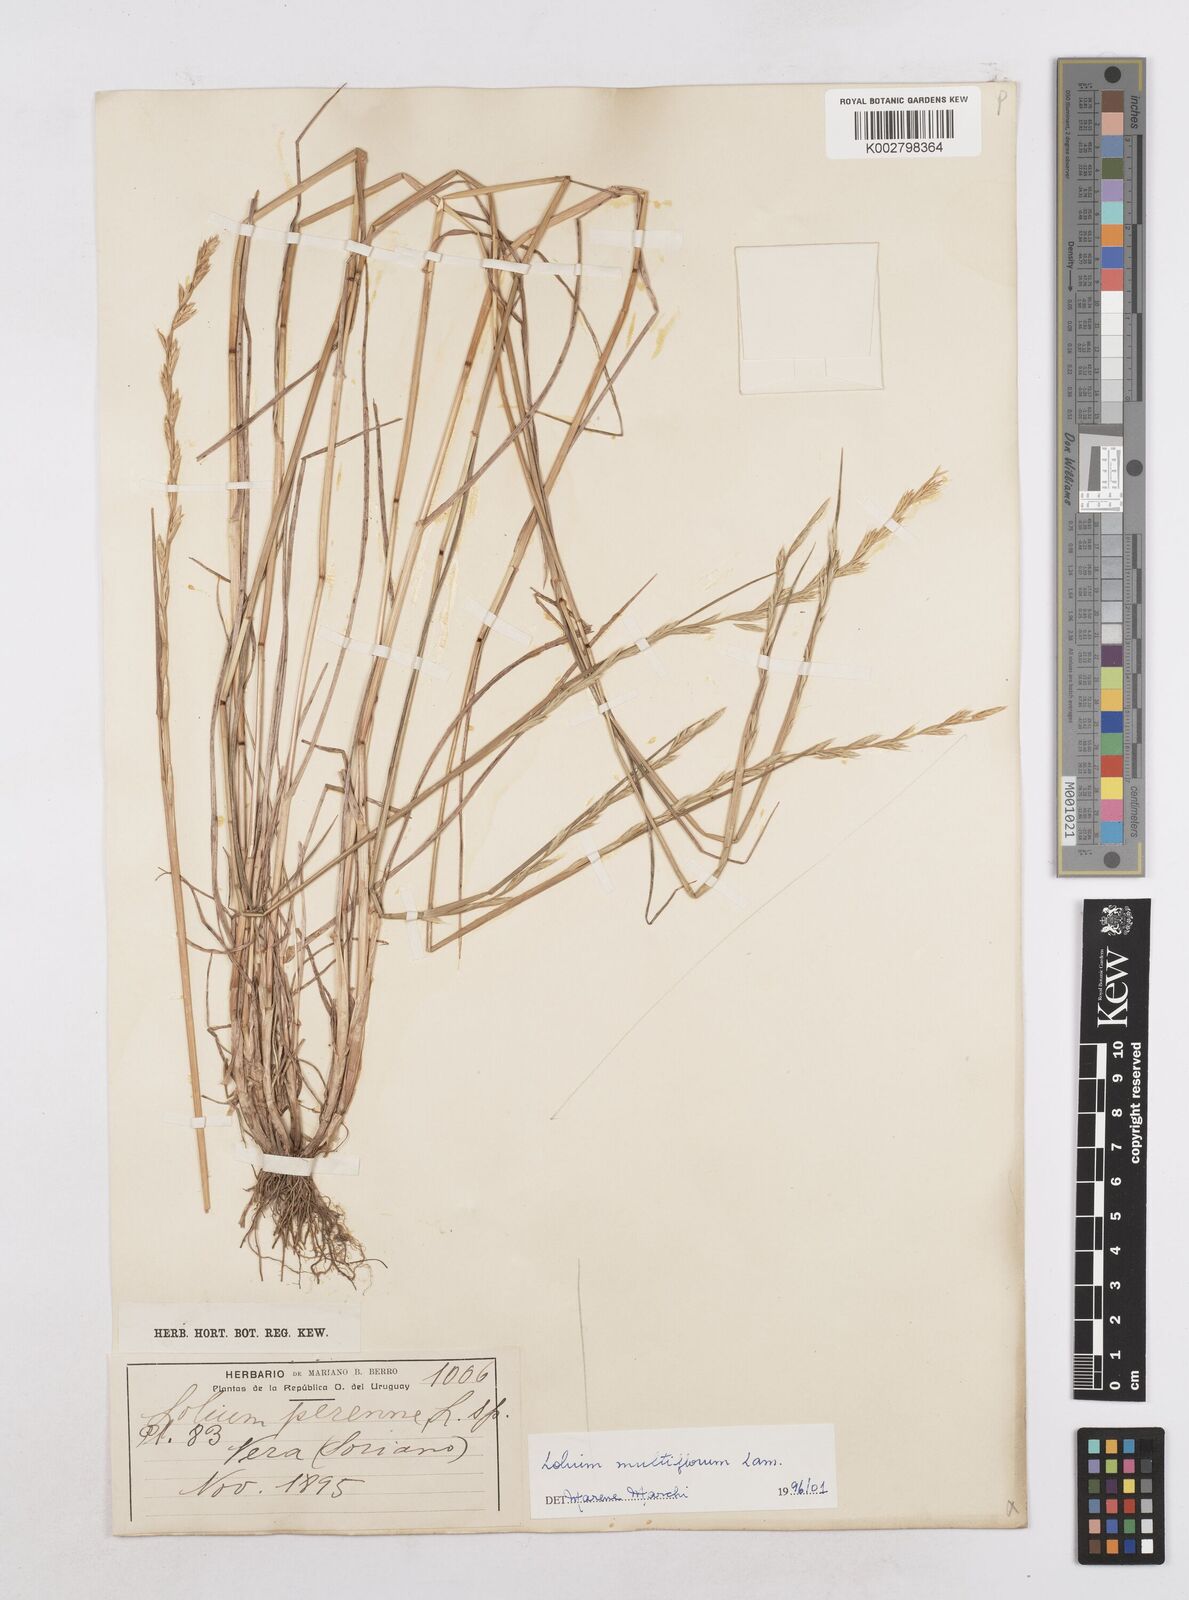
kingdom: Plantae
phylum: Tracheophyta
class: Liliopsida
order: Poales
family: Poaceae
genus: Lolium
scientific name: Lolium multiflorum
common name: Annual ryegrass
